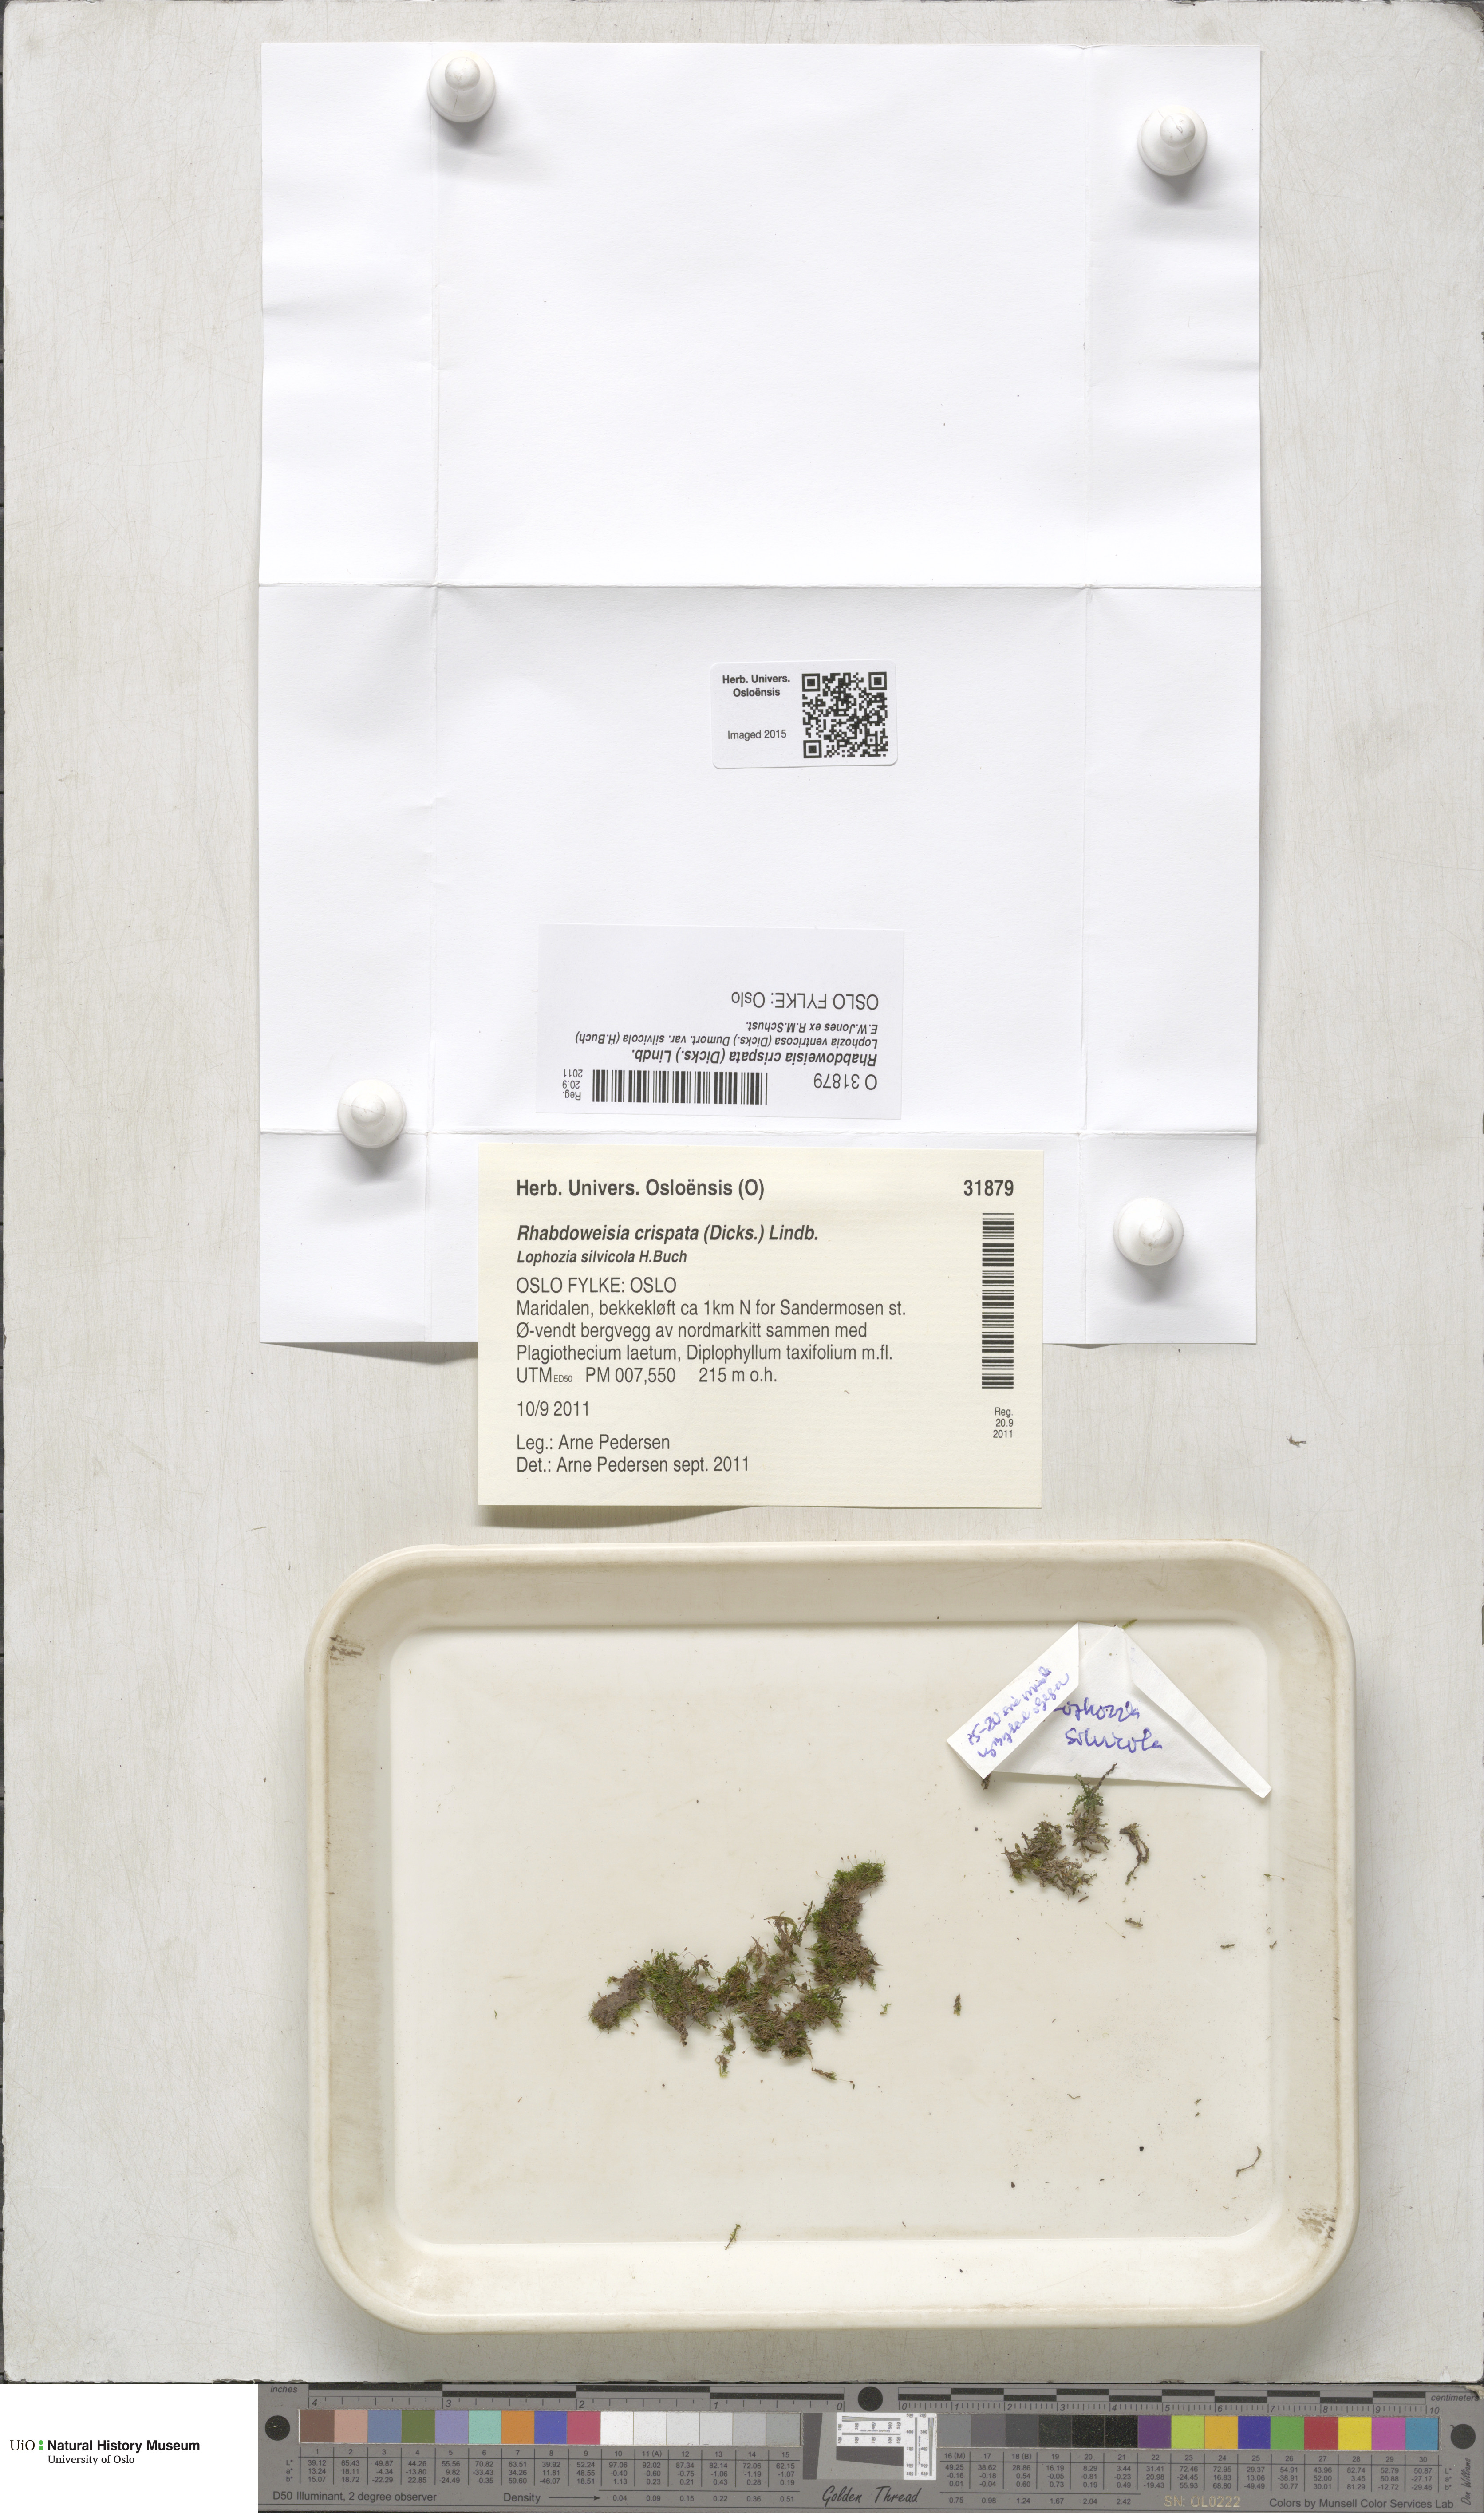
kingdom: Plantae
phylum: Bryophyta
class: Bryopsida
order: Dicranales
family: Rhabdoweisiaceae
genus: Rhabdoweisia
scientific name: Rhabdoweisia crispata
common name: Fine-toothed streak moss
